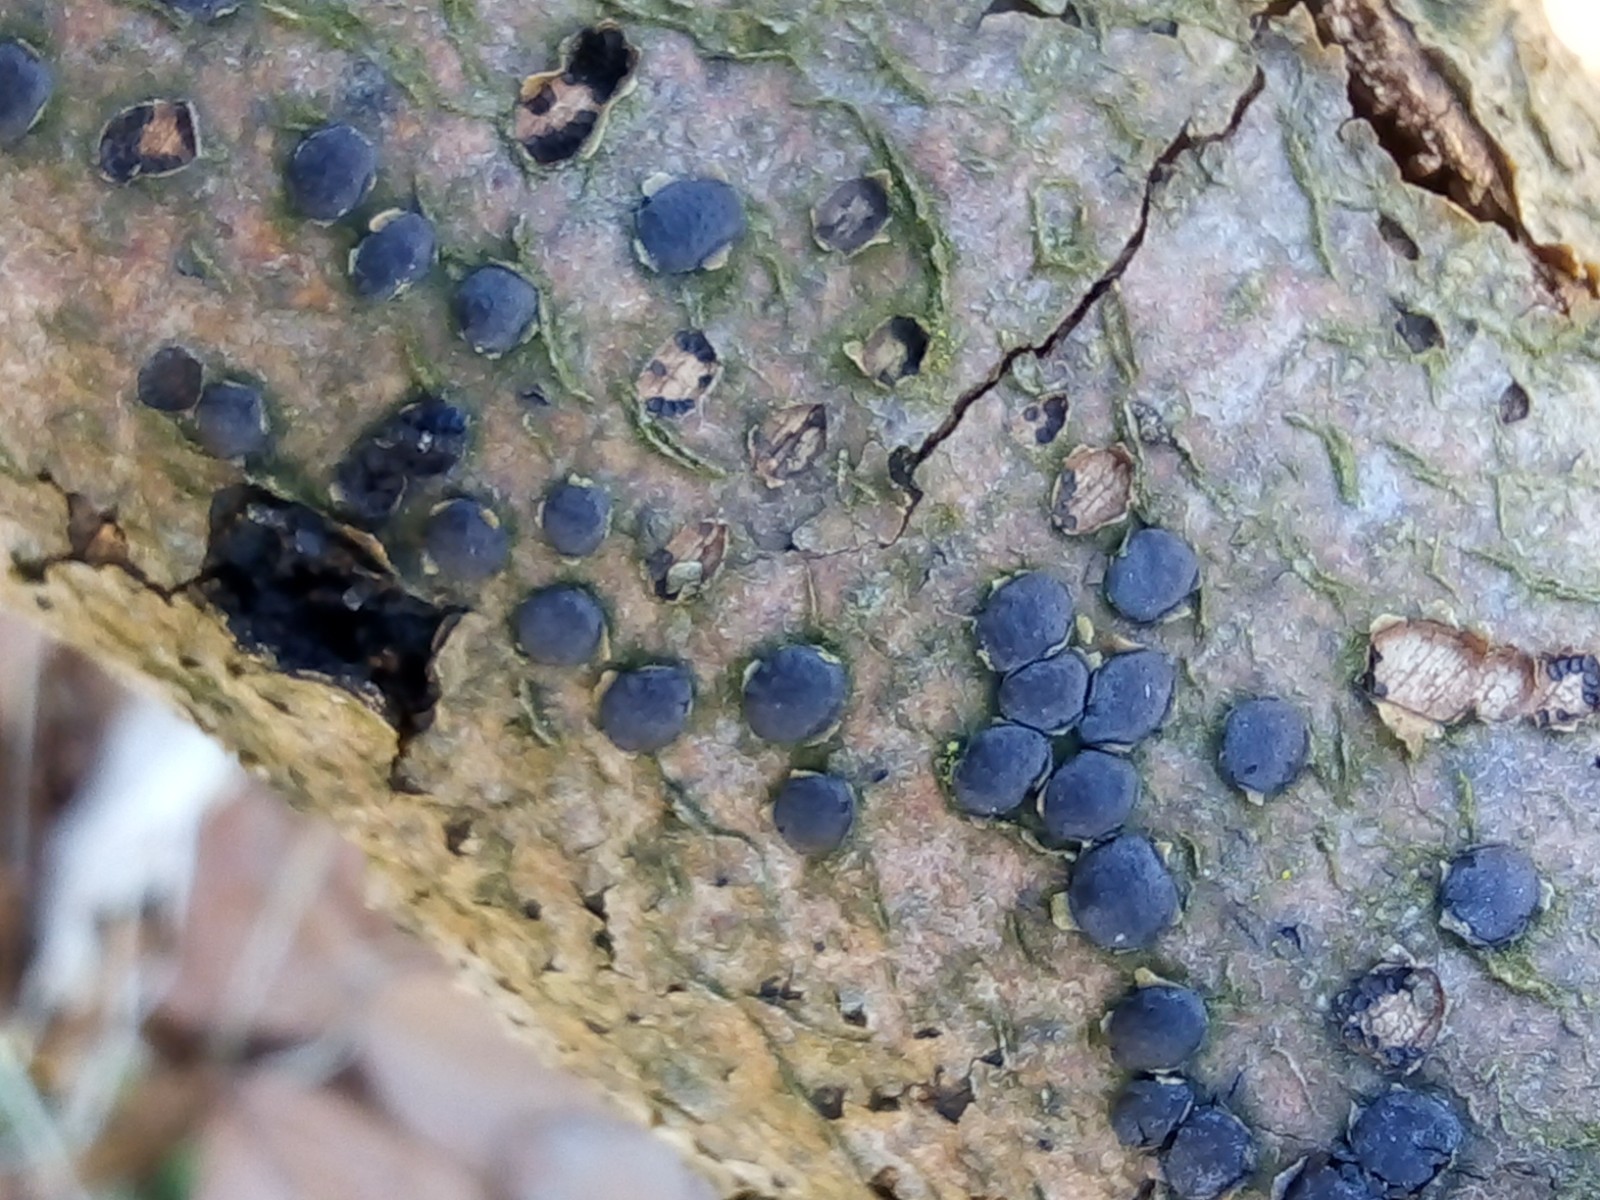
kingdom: Fungi
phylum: Ascomycota
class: Sordariomycetes
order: Xylariales
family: Diatrypaceae
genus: Diatrype
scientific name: Diatrype disciformis
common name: kant-kulskorpe
